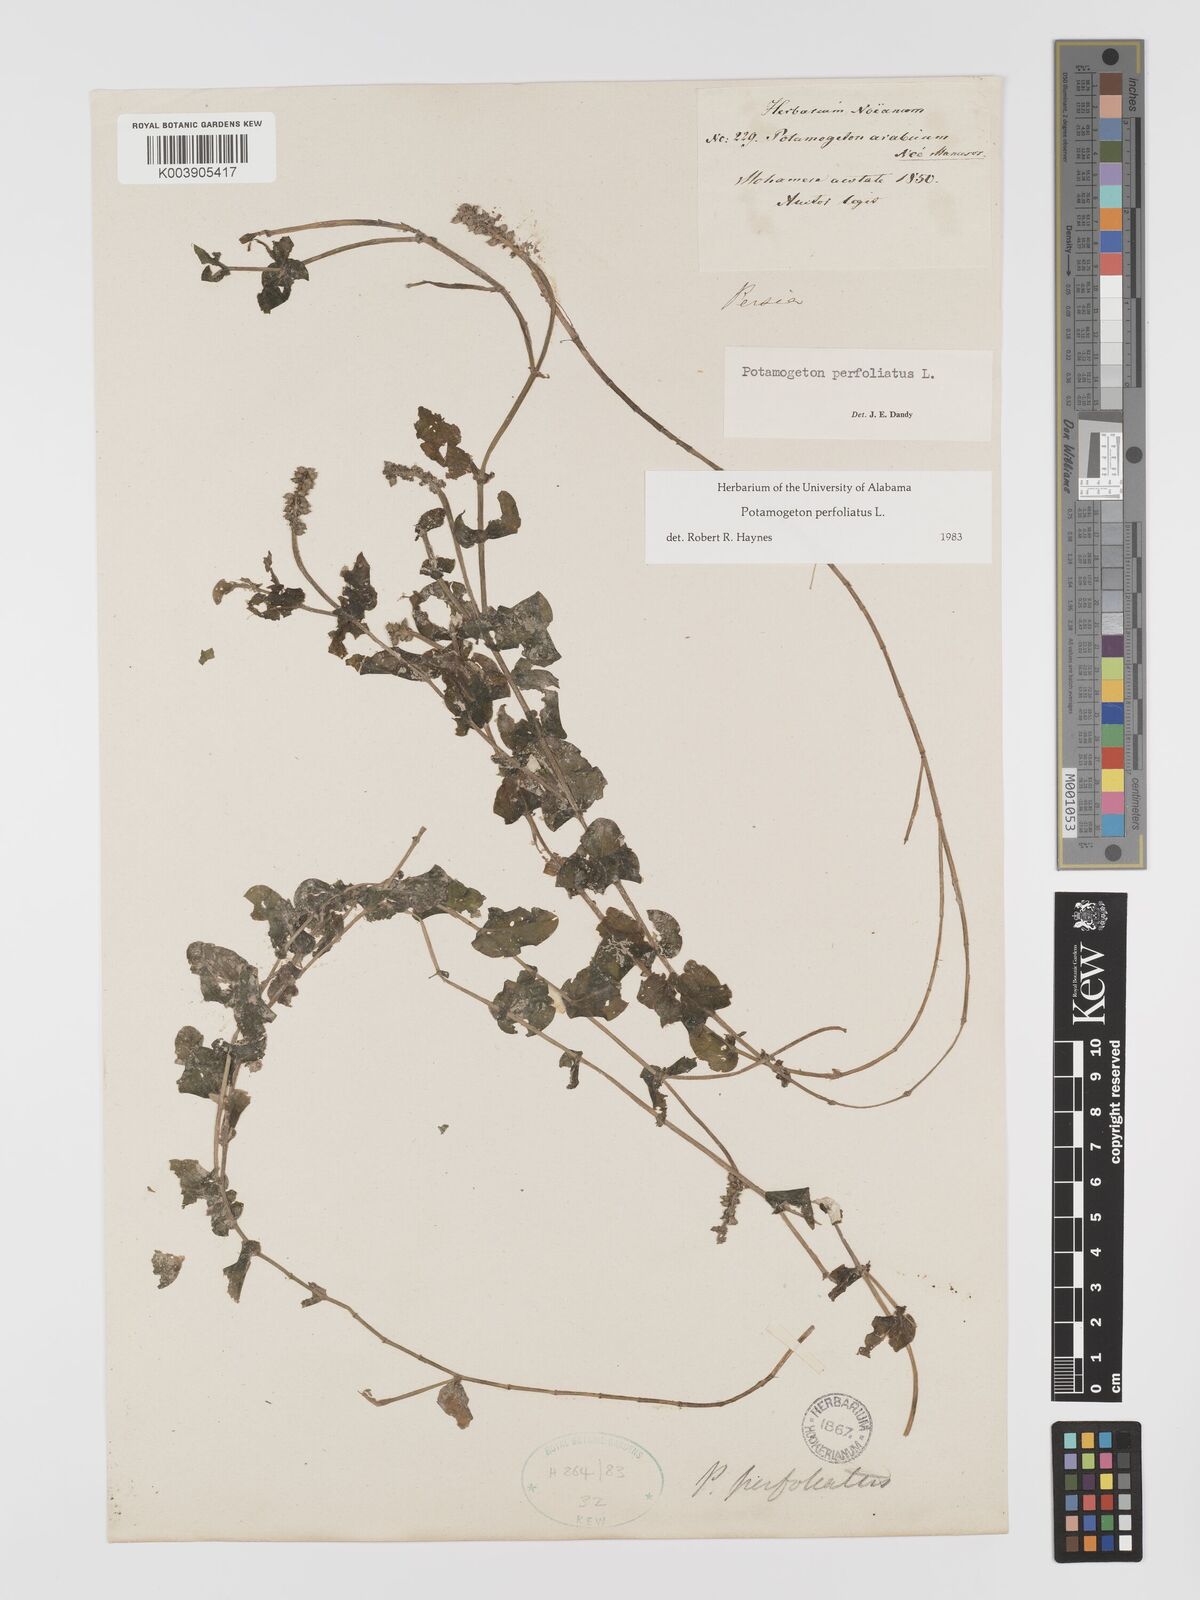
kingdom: Plantae
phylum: Tracheophyta
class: Liliopsida
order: Alismatales
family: Potamogetonaceae
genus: Potamogeton
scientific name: Potamogeton perfoliatus
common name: Perfoliate pondweed
